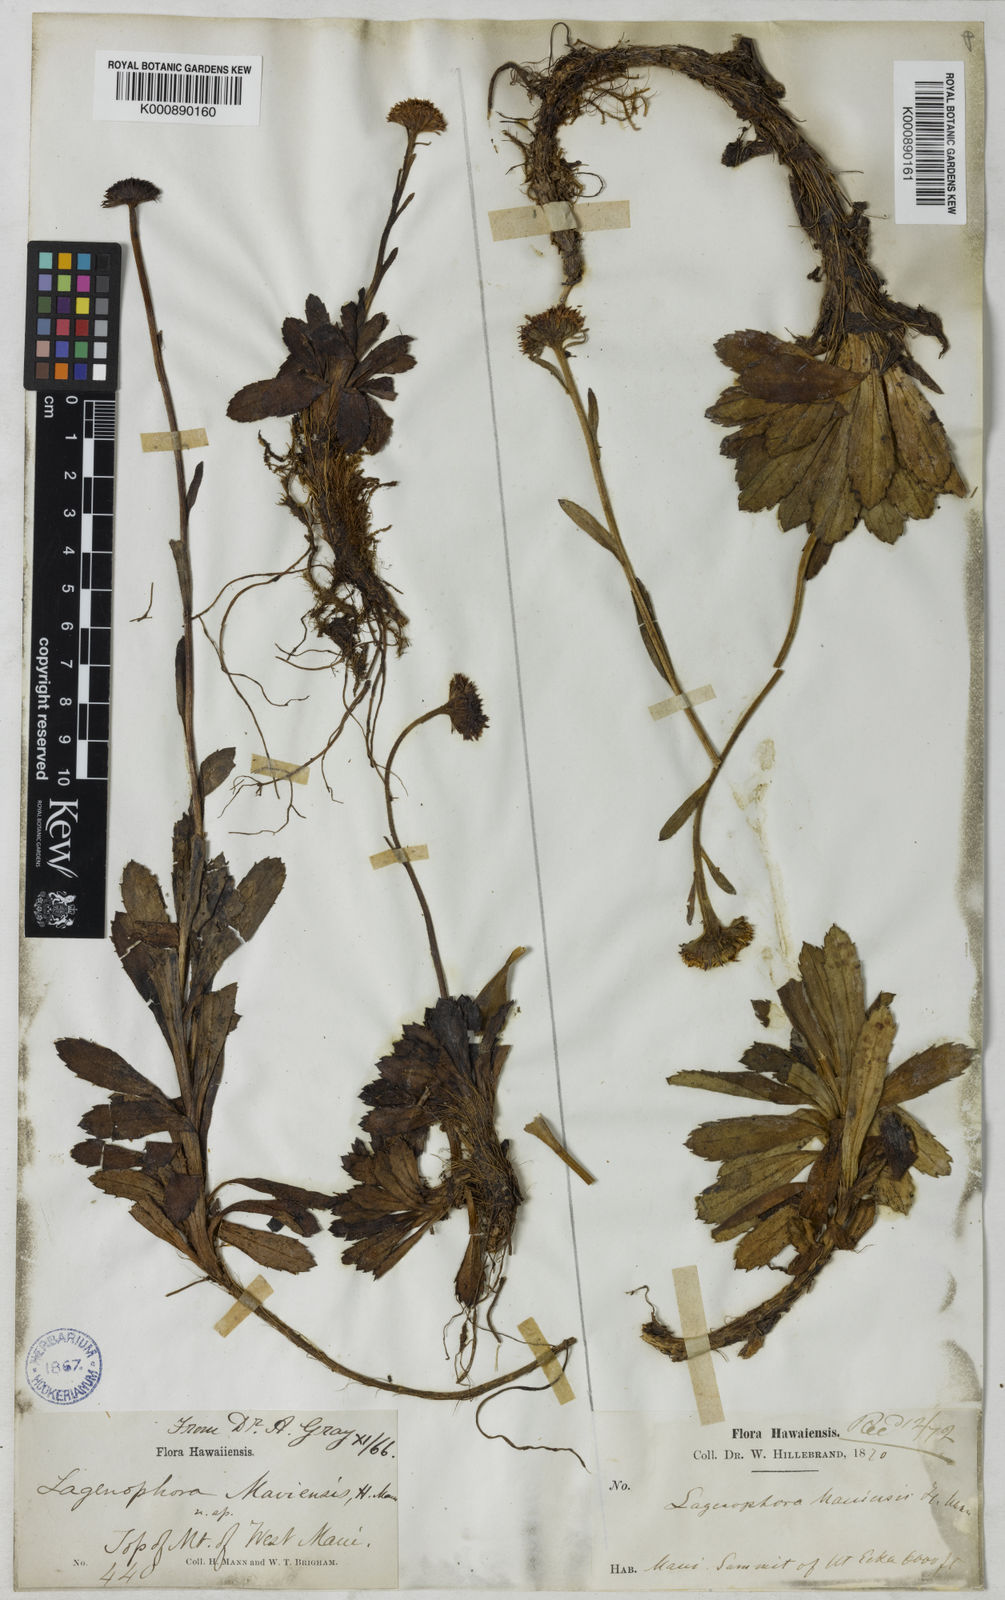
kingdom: Plantae
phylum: Tracheophyta
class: Magnoliopsida
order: Asterales
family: Asteraceae
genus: Helodeaster
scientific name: Helodeaster maviensis
